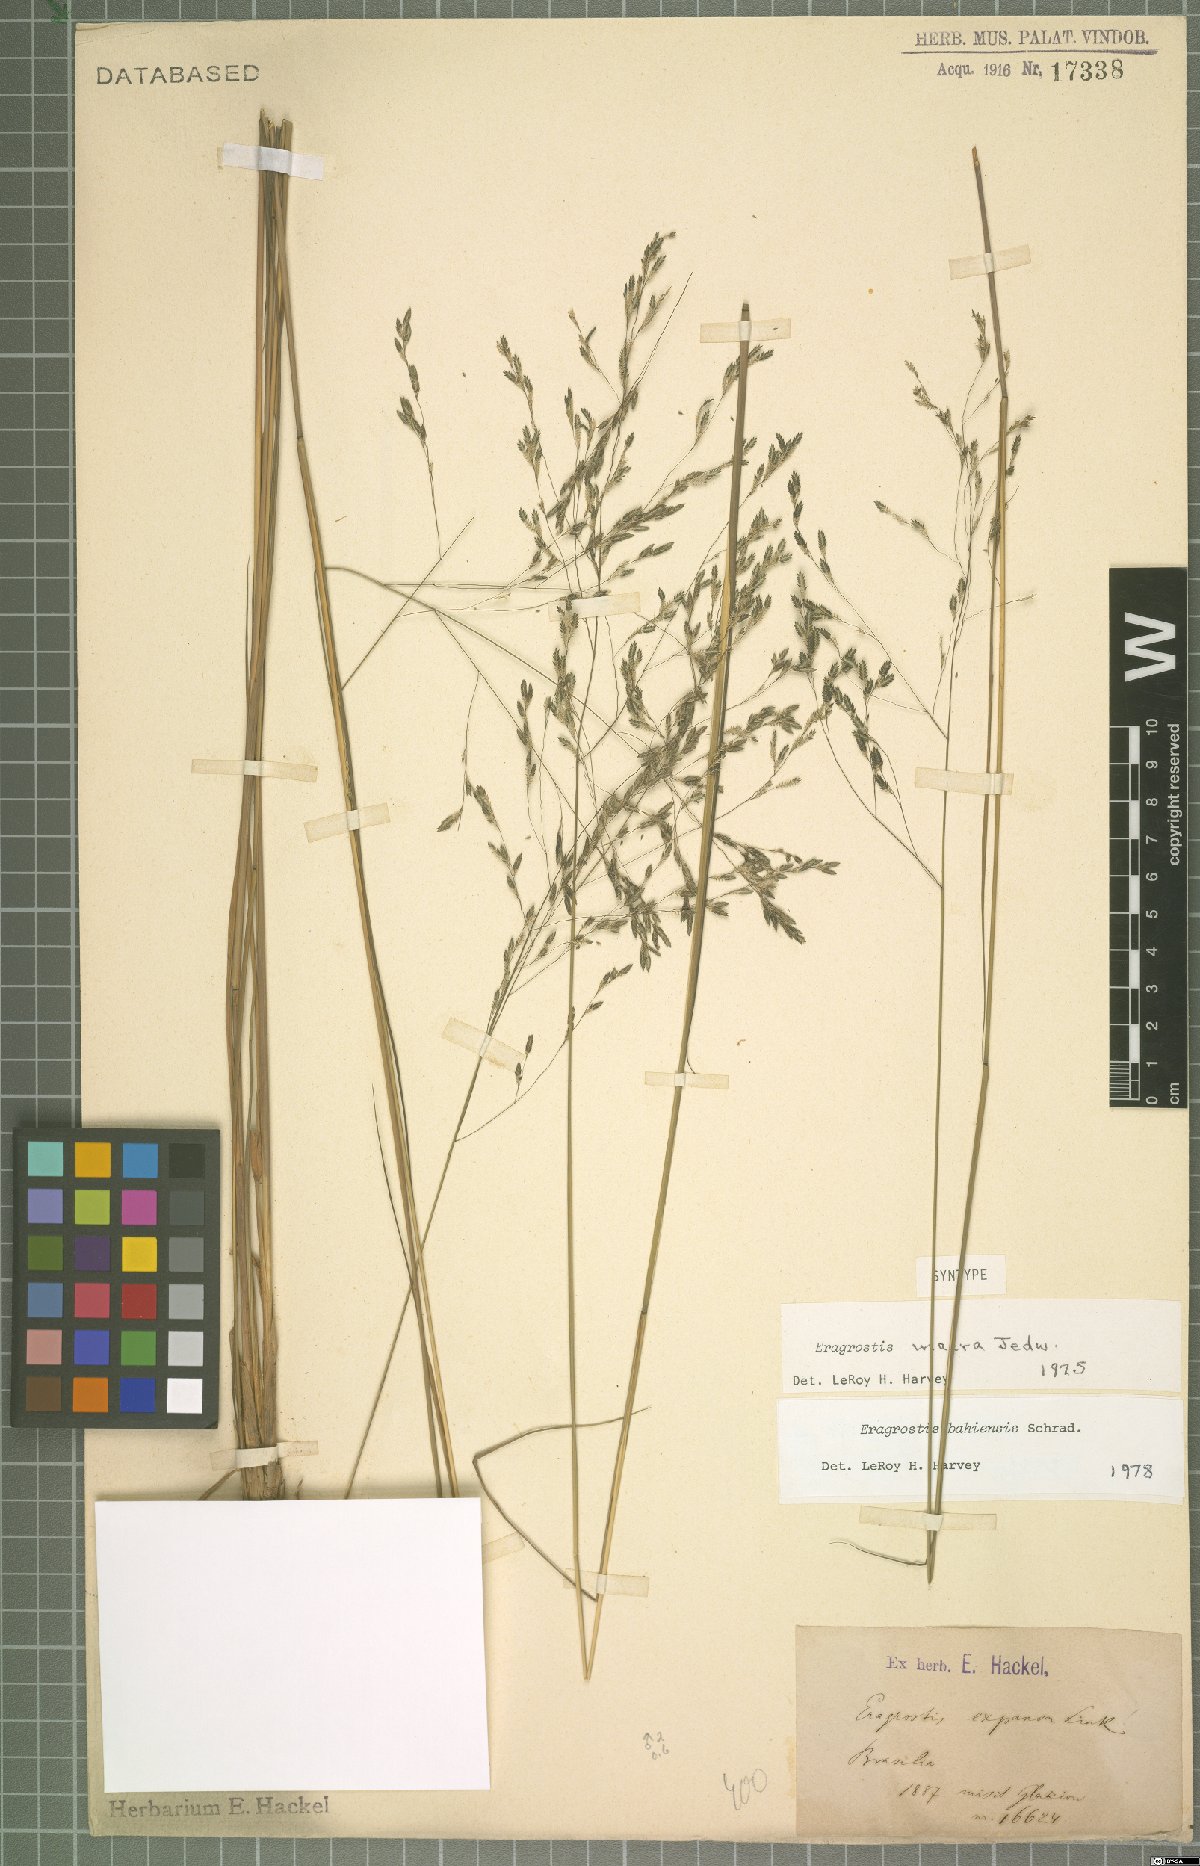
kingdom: Plantae
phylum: Tracheophyta
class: Liliopsida
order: Poales
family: Poaceae
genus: Eragrostis
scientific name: Eragrostis bahiensis
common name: Bahia lovegrass
